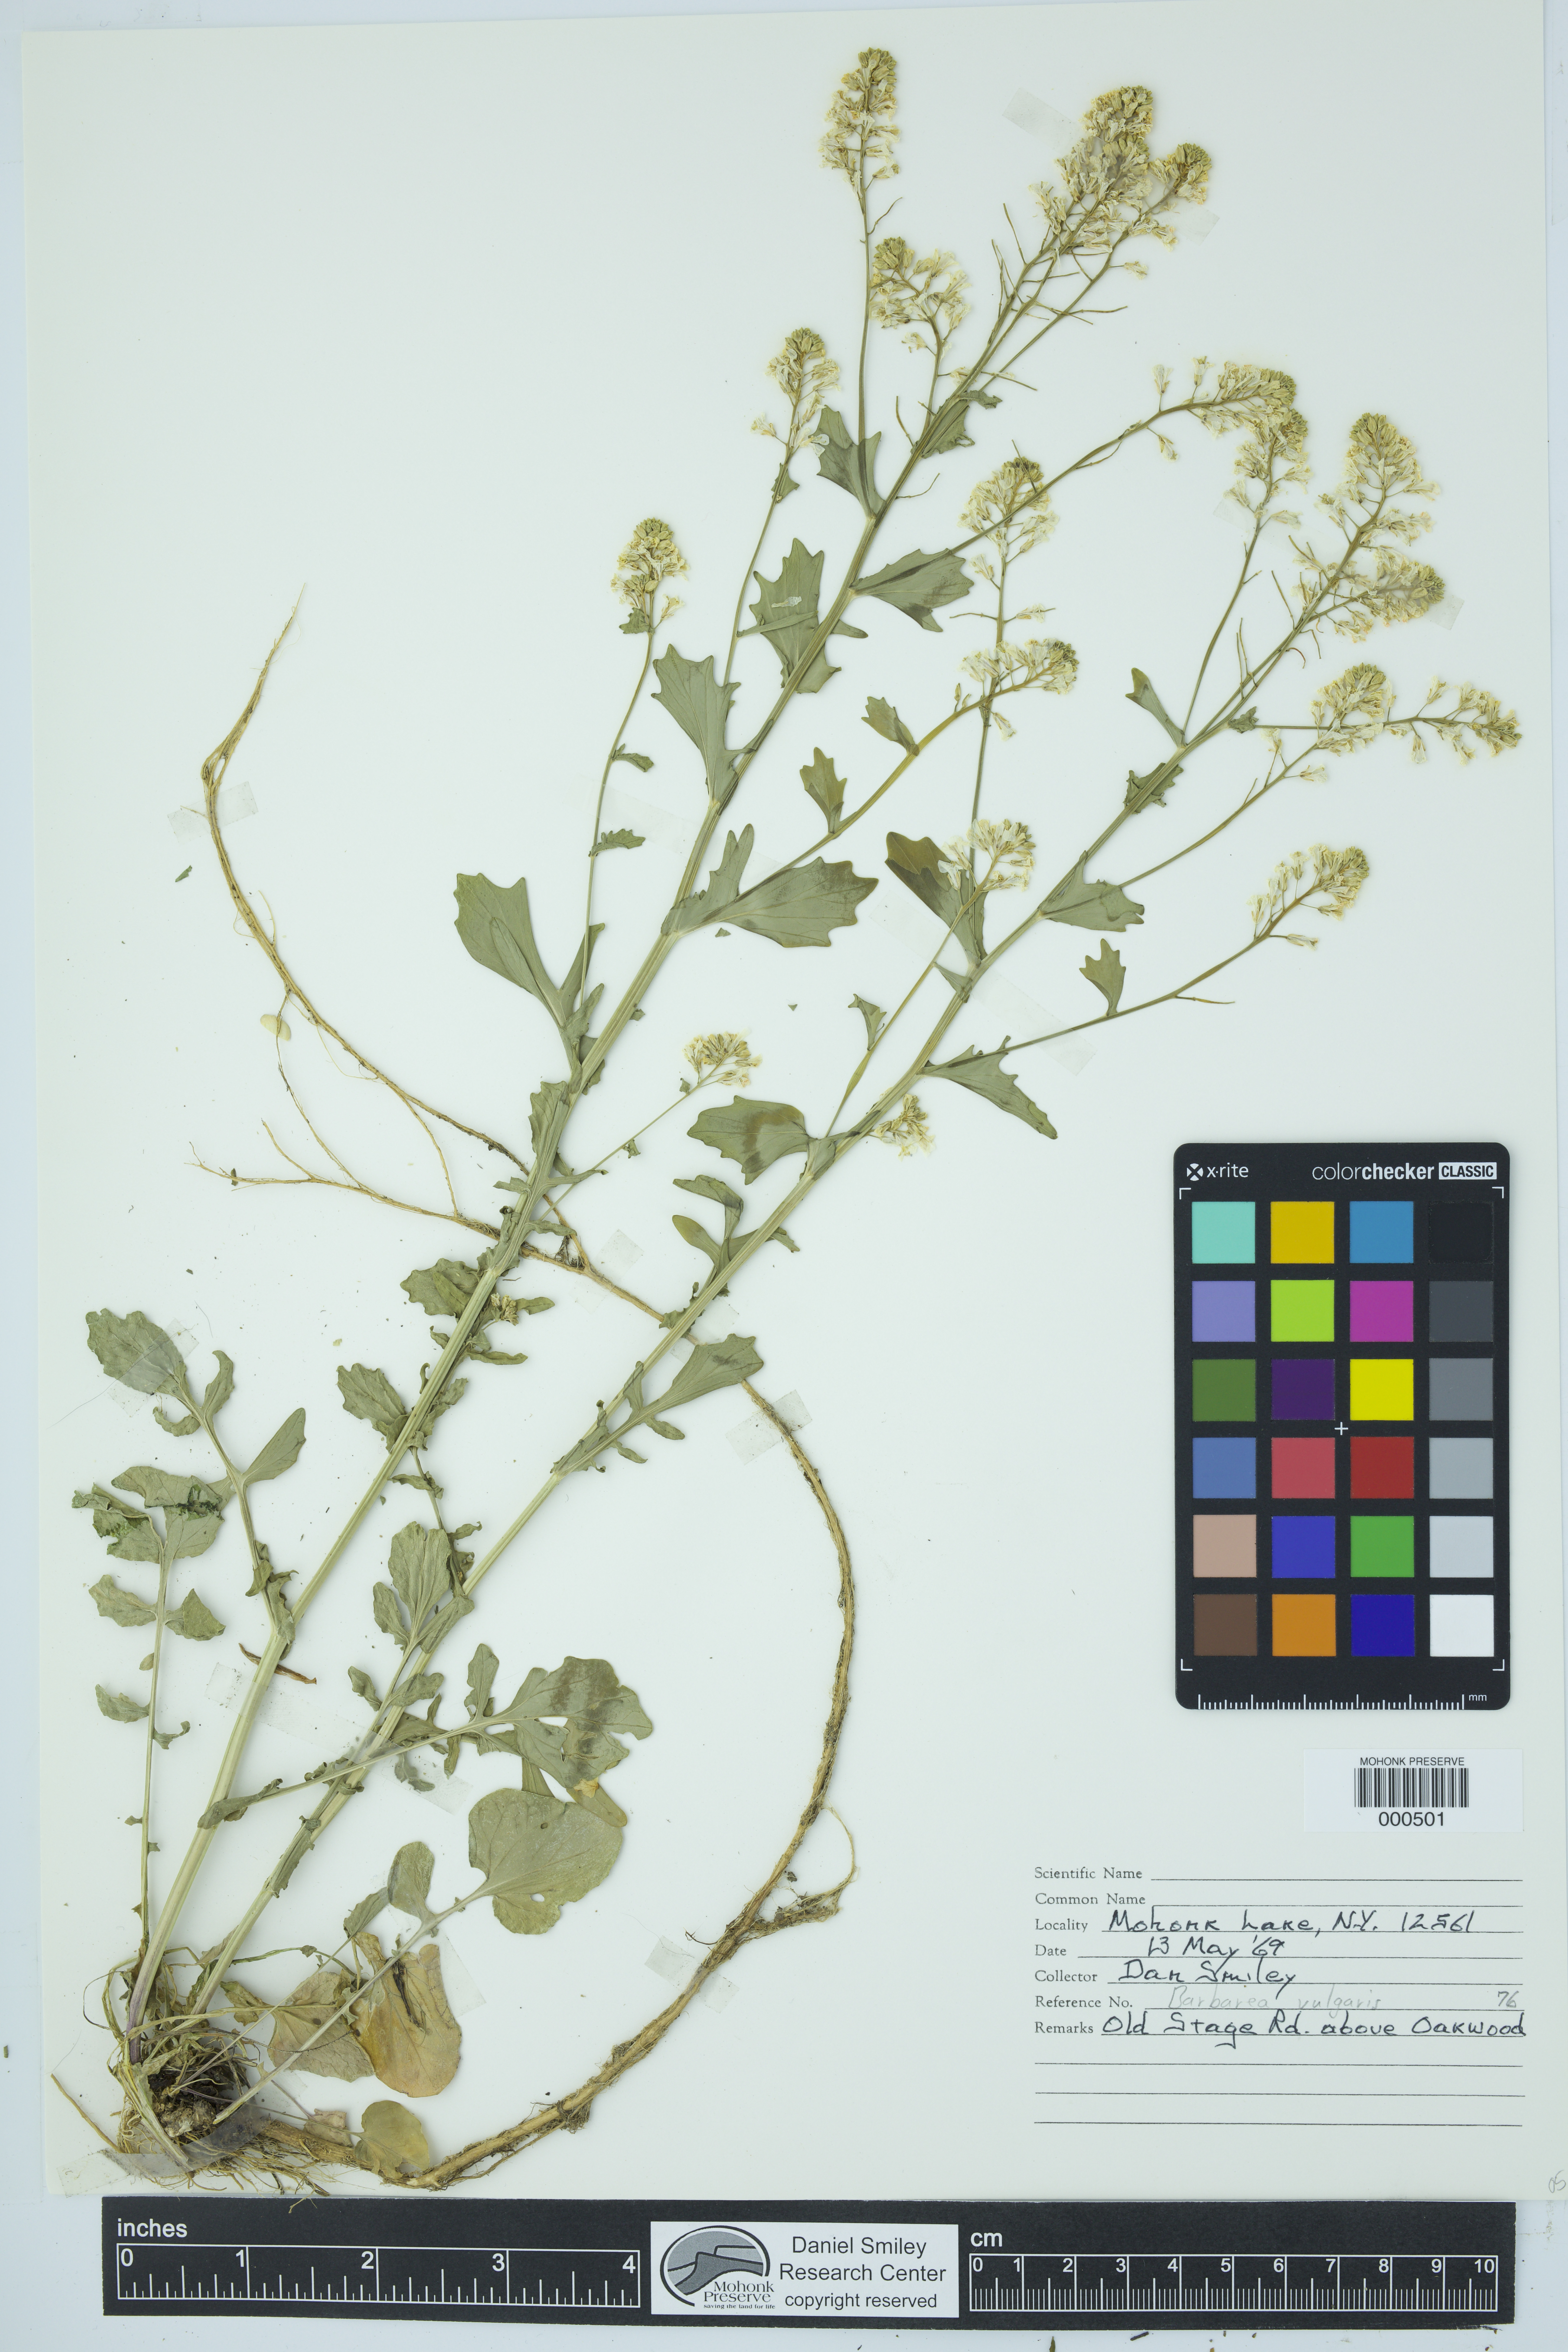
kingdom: Plantae
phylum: Tracheophyta
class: Magnoliopsida
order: Brassicales
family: Brassicaceae
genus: Barbarea
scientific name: Barbarea vulgaris
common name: Cressy-greens
